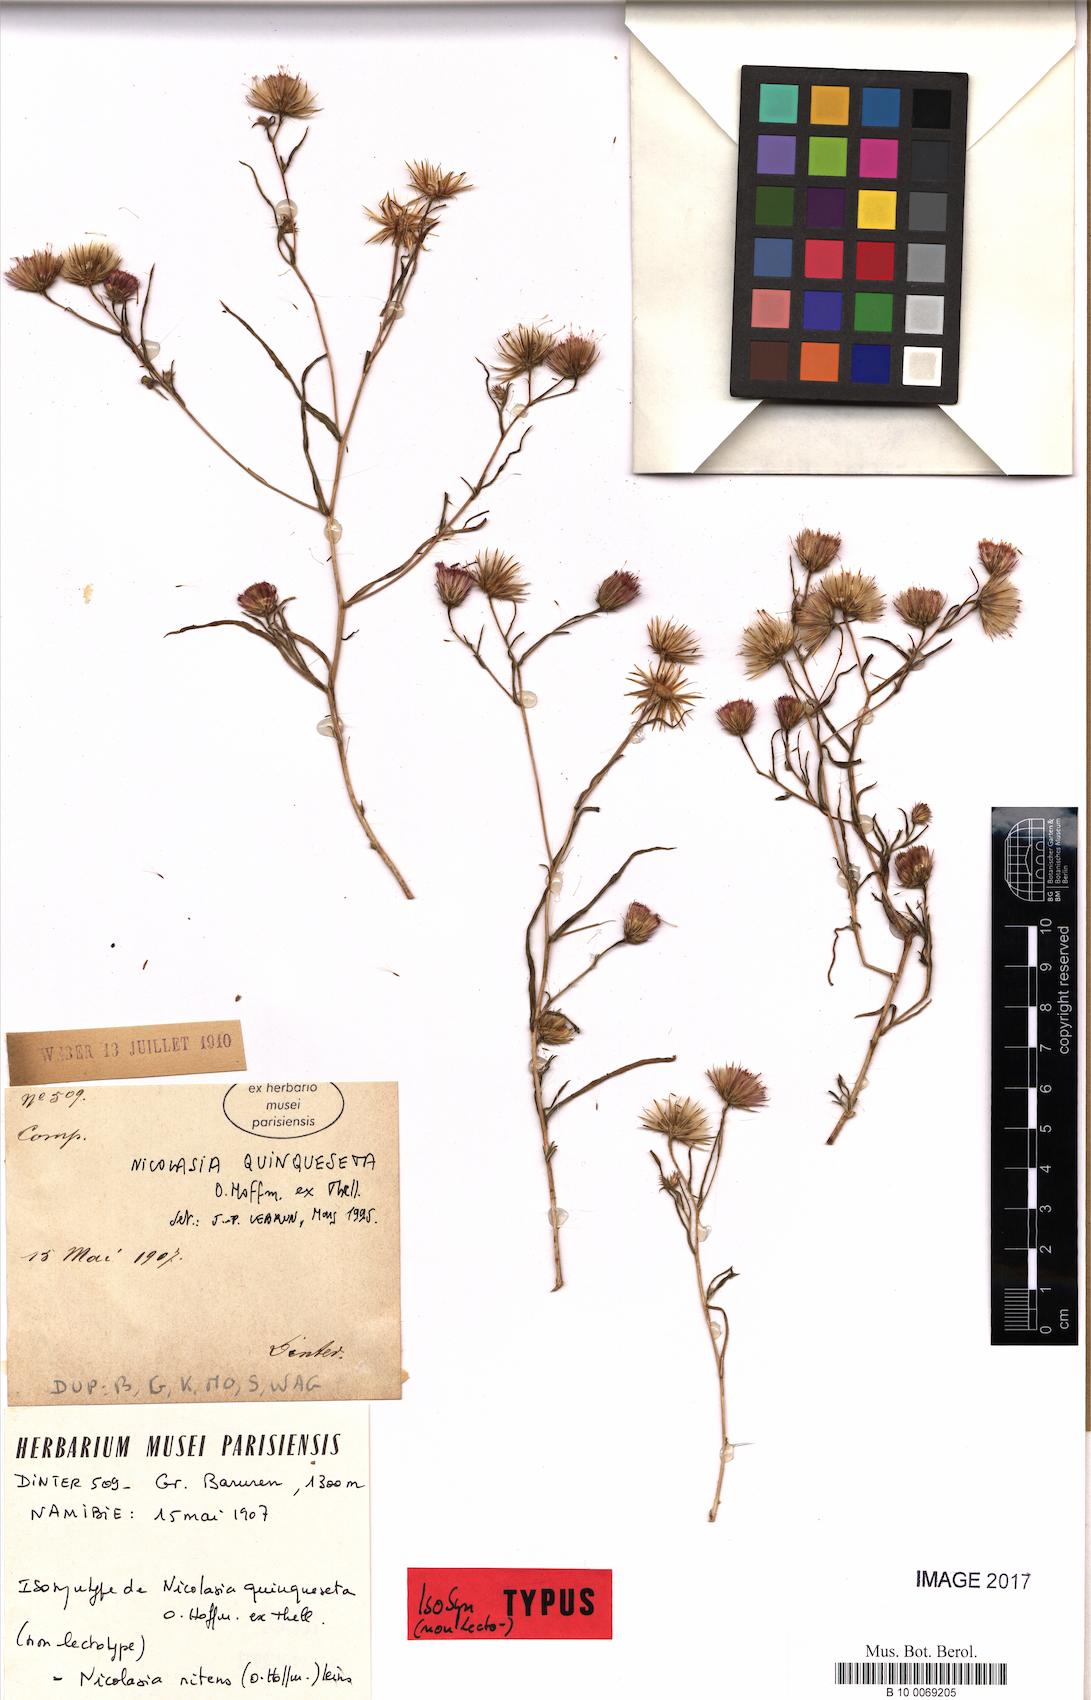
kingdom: Plantae
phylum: Tracheophyta
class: Magnoliopsida
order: Asterales
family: Asteraceae
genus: Nicolasia
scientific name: Nicolasia nitens
